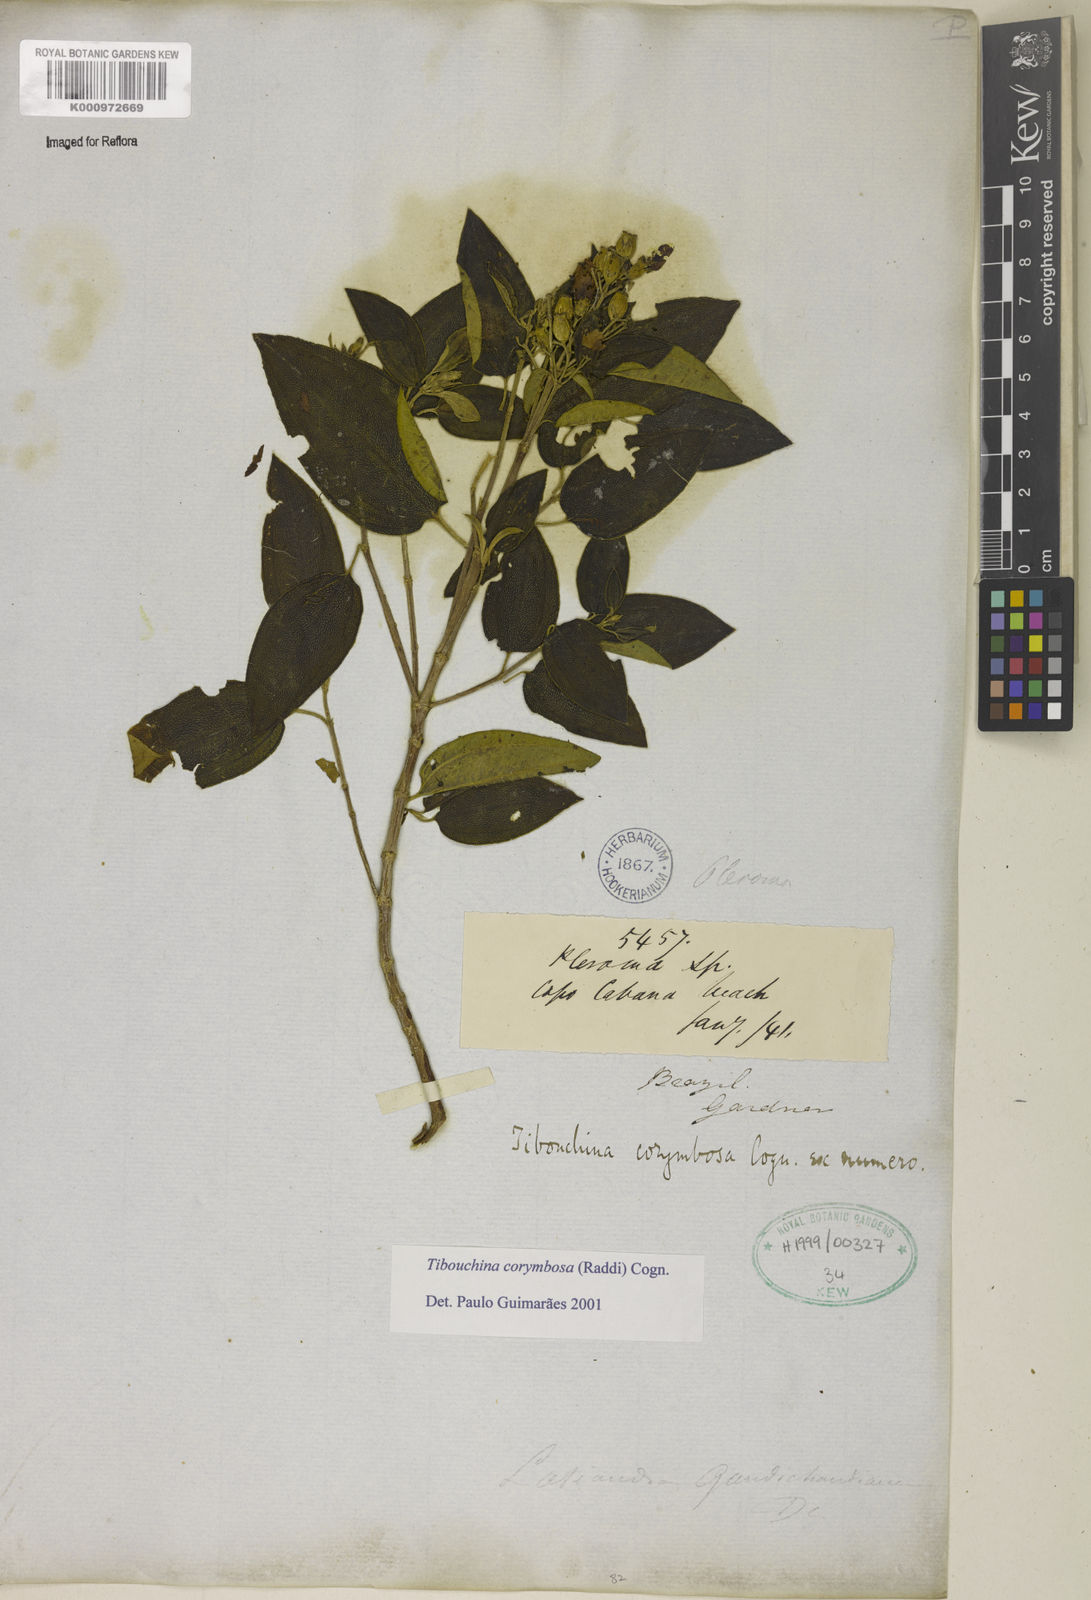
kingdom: Plantae
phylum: Tracheophyta
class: Magnoliopsida
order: Myrtales
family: Melastomataceae
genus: Pleroma
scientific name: Pleroma vimineum
